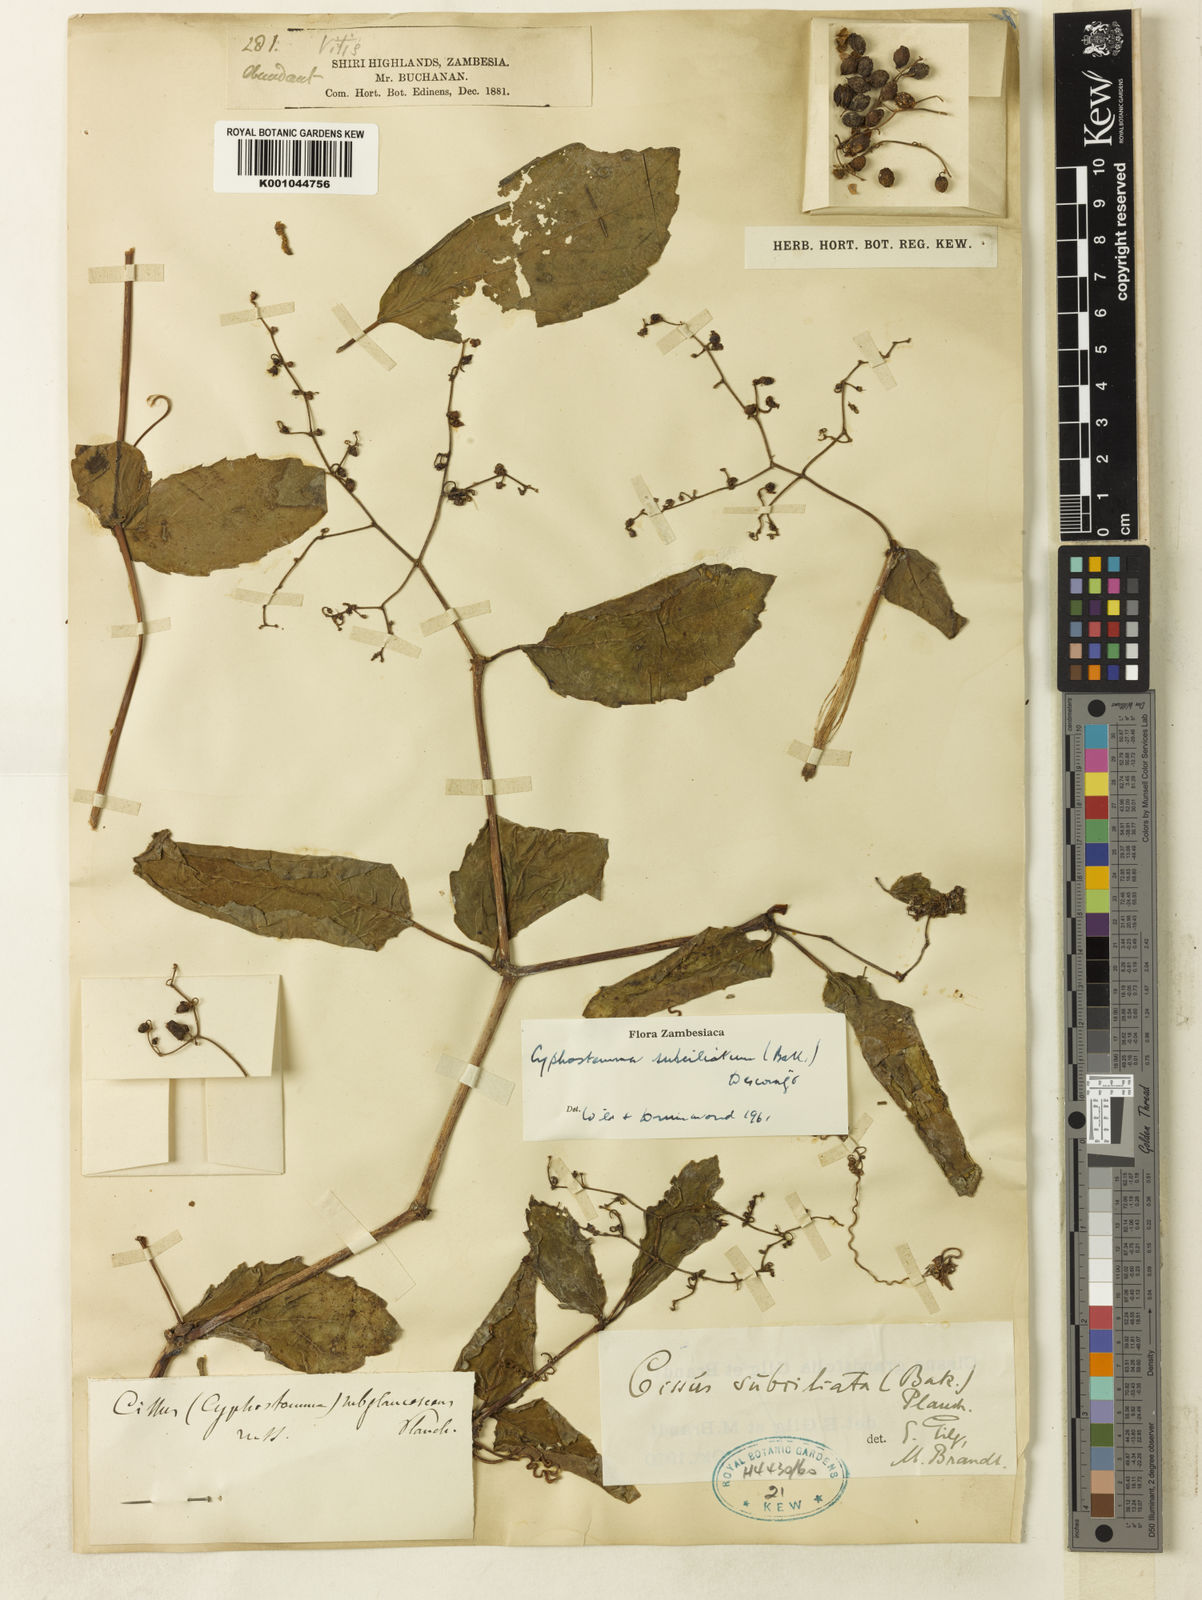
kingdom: Plantae
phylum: Tracheophyta
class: Magnoliopsida
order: Vitales
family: Vitaceae
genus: Cyphostemma
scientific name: Cyphostemma
